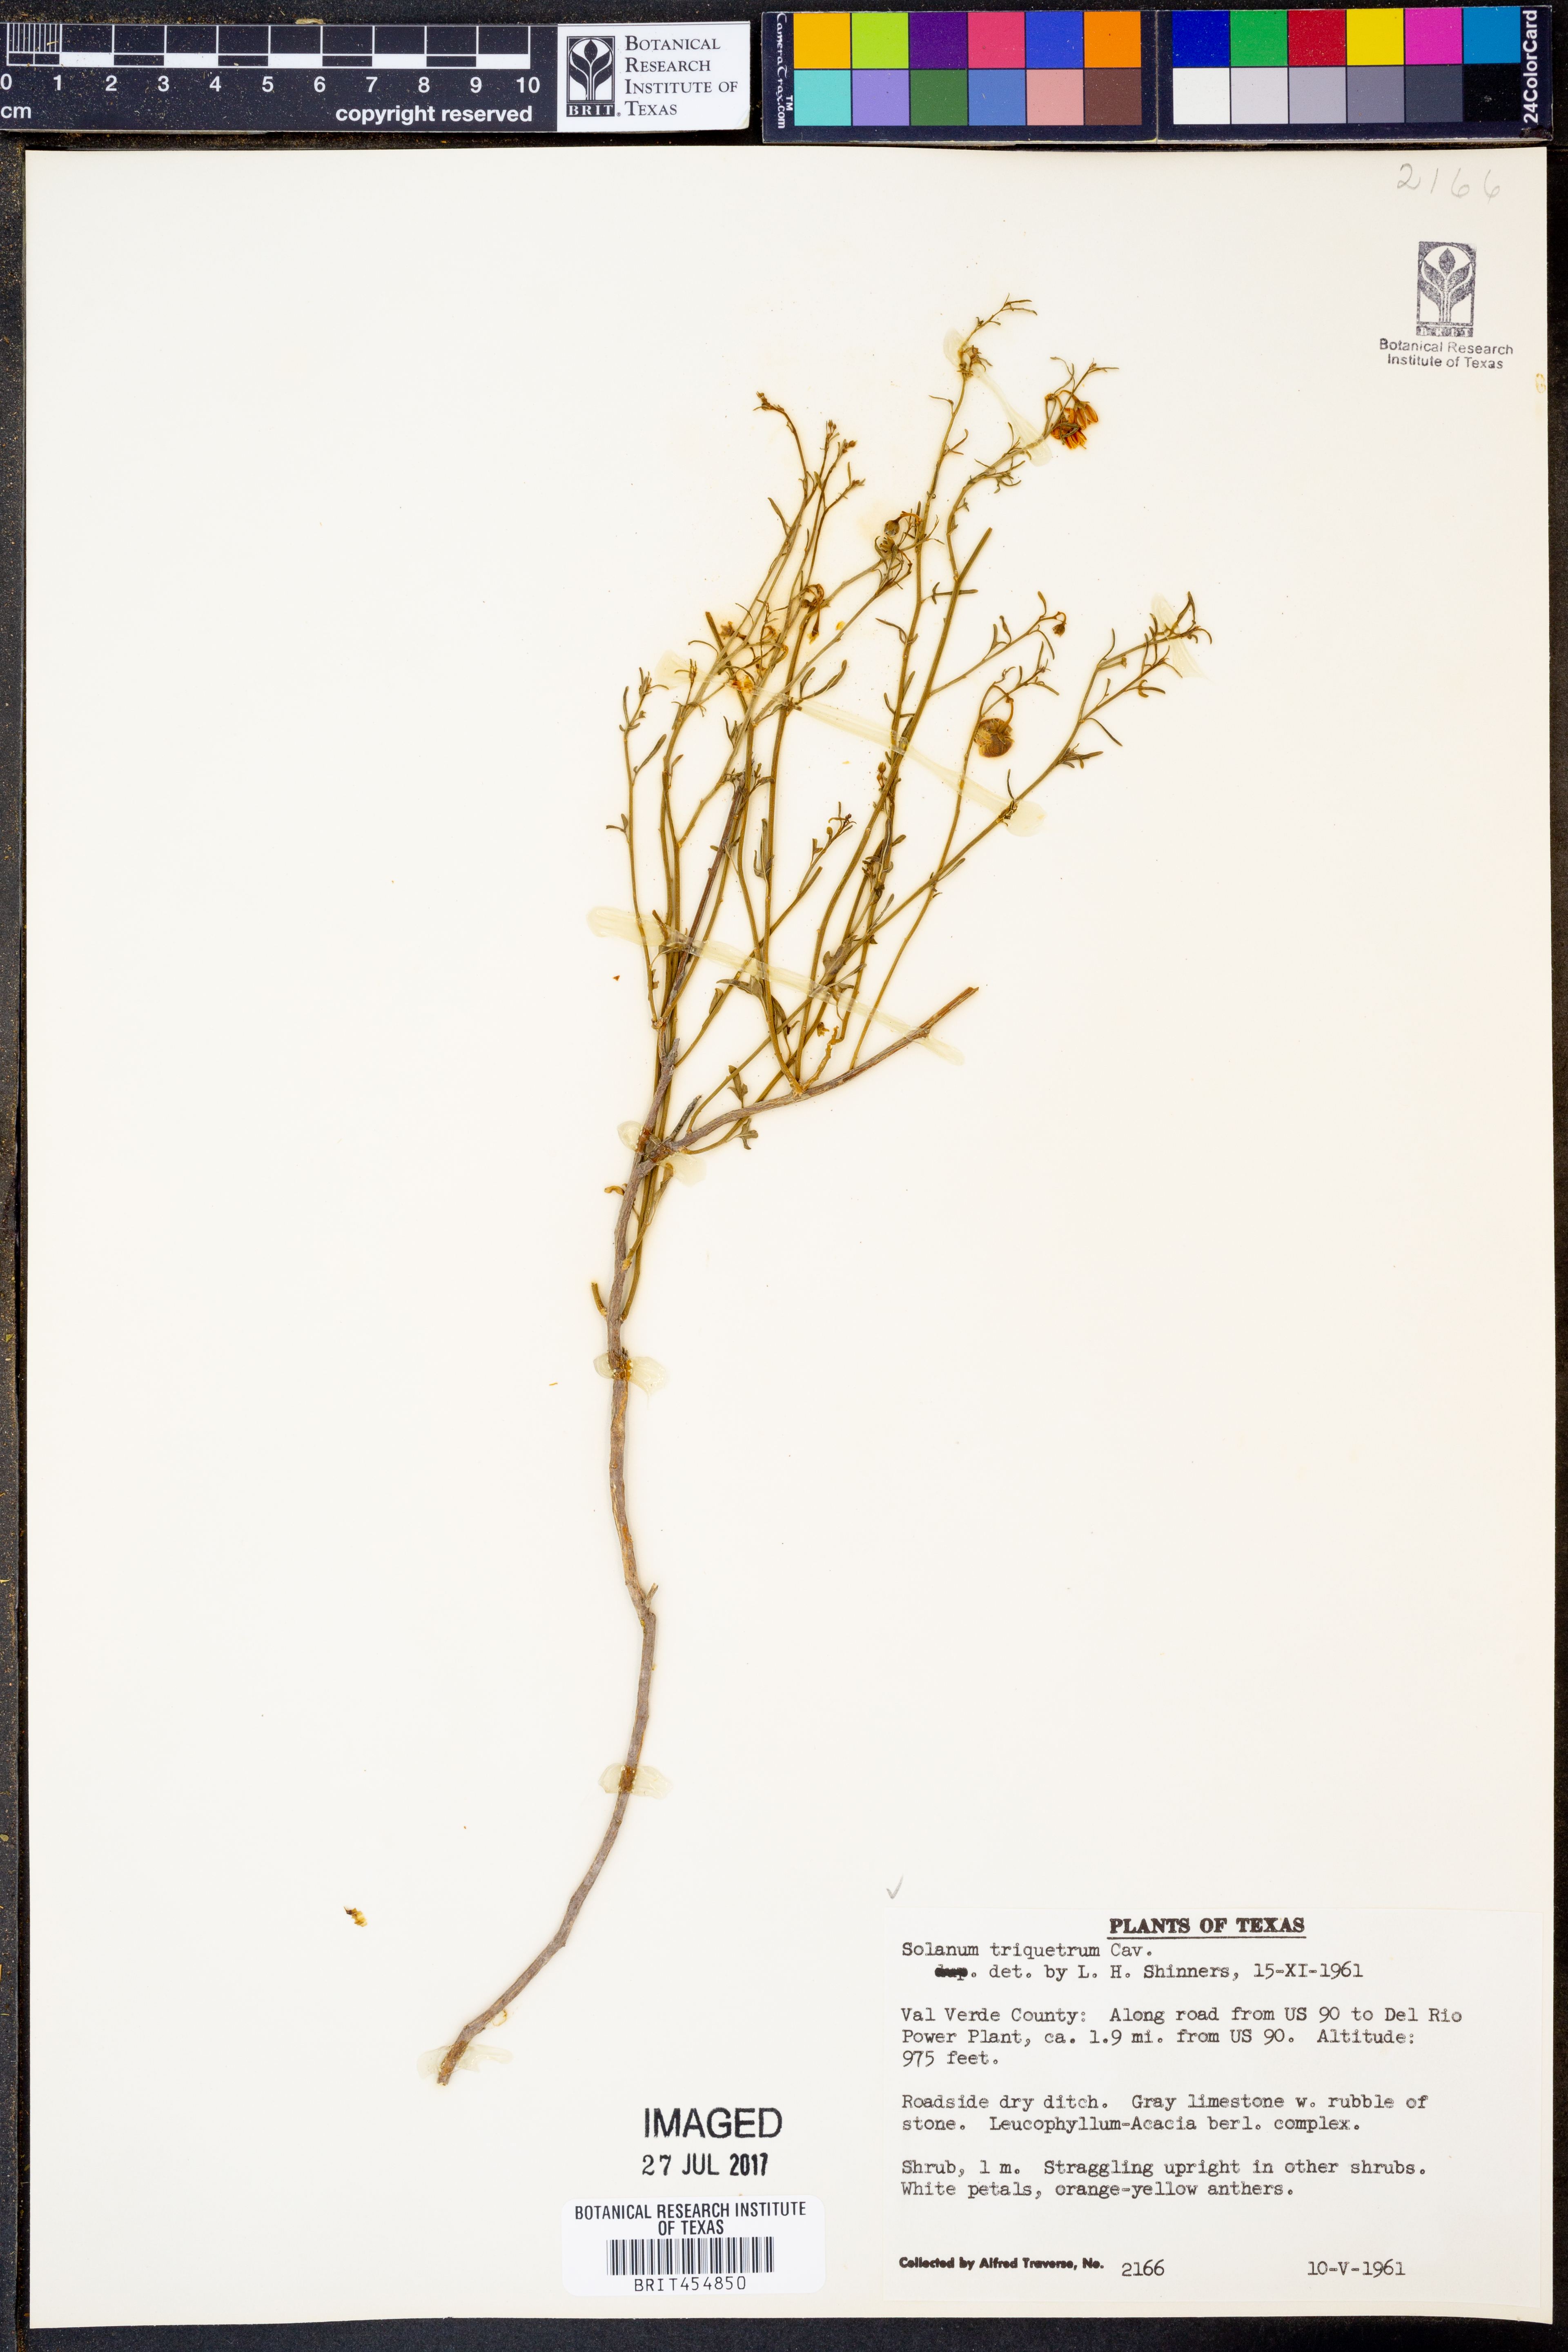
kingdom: Plantae
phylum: Tracheophyta
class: Magnoliopsida
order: Solanales
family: Solanaceae
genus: Solanum
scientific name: Solanum triquetrum
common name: Texas nightshade
